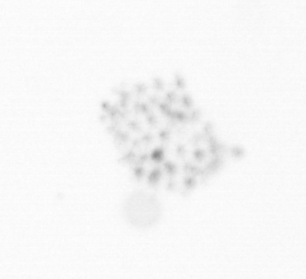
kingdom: Chromista
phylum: Ochrophyta
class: Bacillariophyceae
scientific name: Bacillariophyceae
